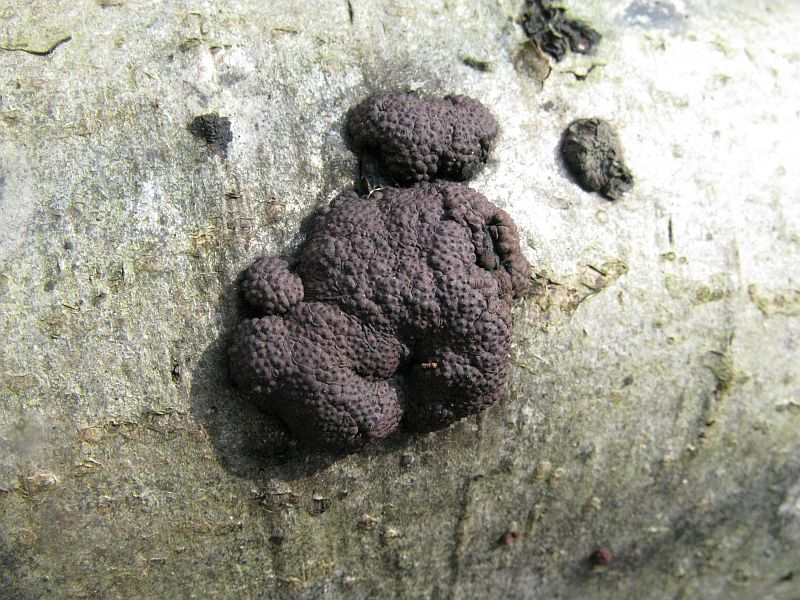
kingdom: Fungi
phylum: Ascomycota
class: Sordariomycetes
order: Xylariales
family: Hypoxylaceae
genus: Jackrogersella
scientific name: Jackrogersella multiformis
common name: foranderlig kulbær
